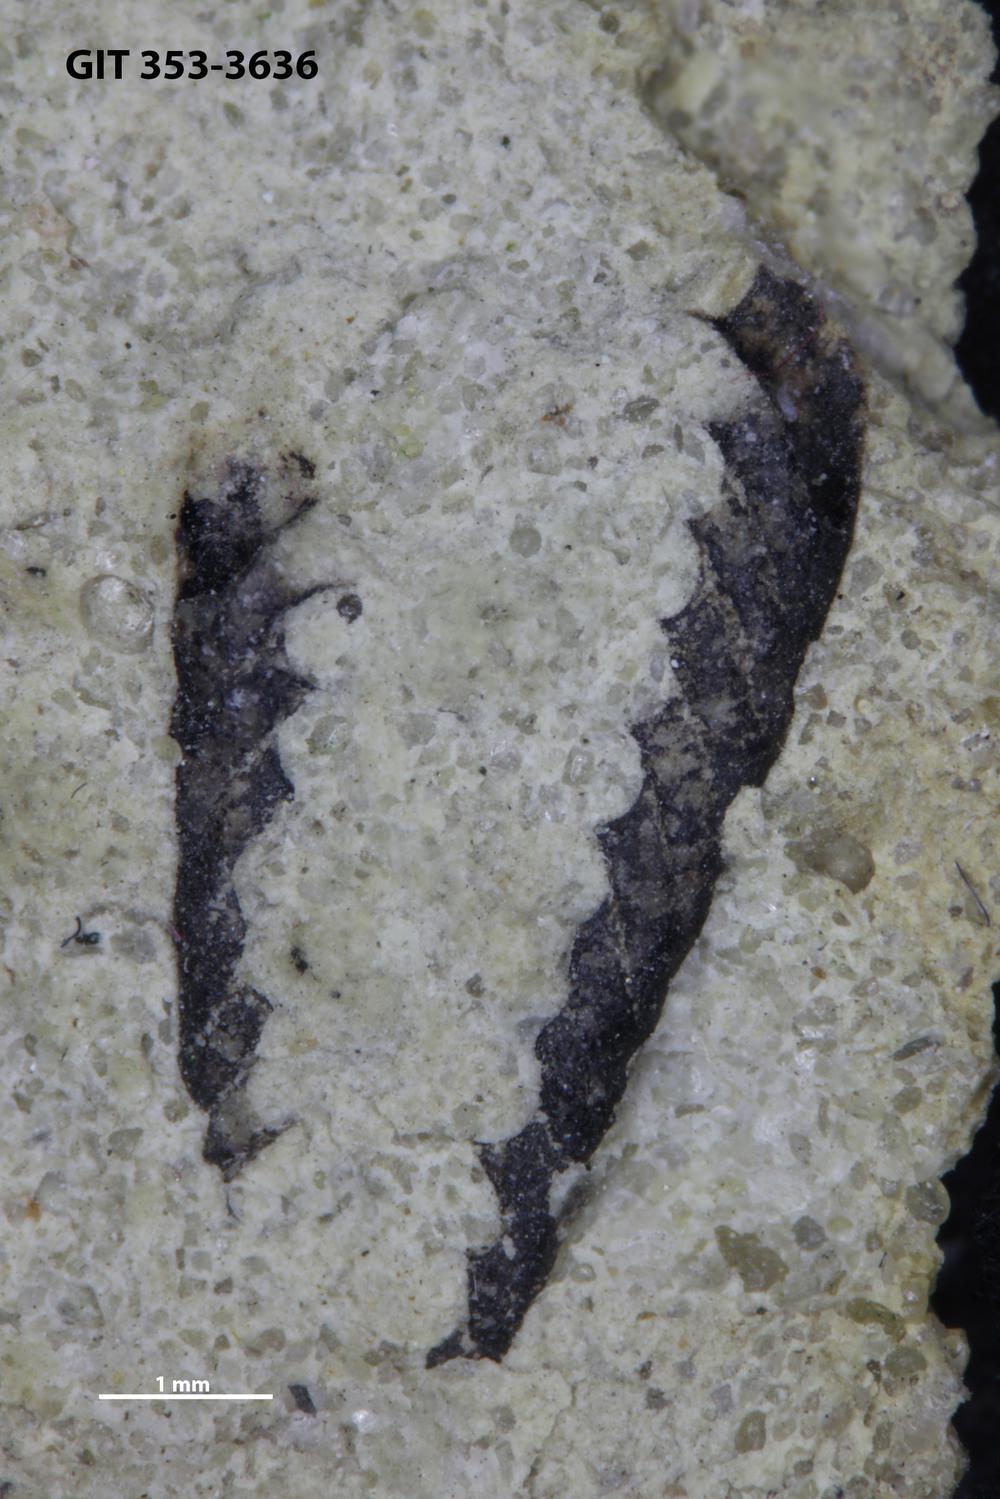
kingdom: Animalia
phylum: Hemichordata
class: Pterobranchia
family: Dichograptidae
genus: Didymograptus
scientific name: Didymograptus
